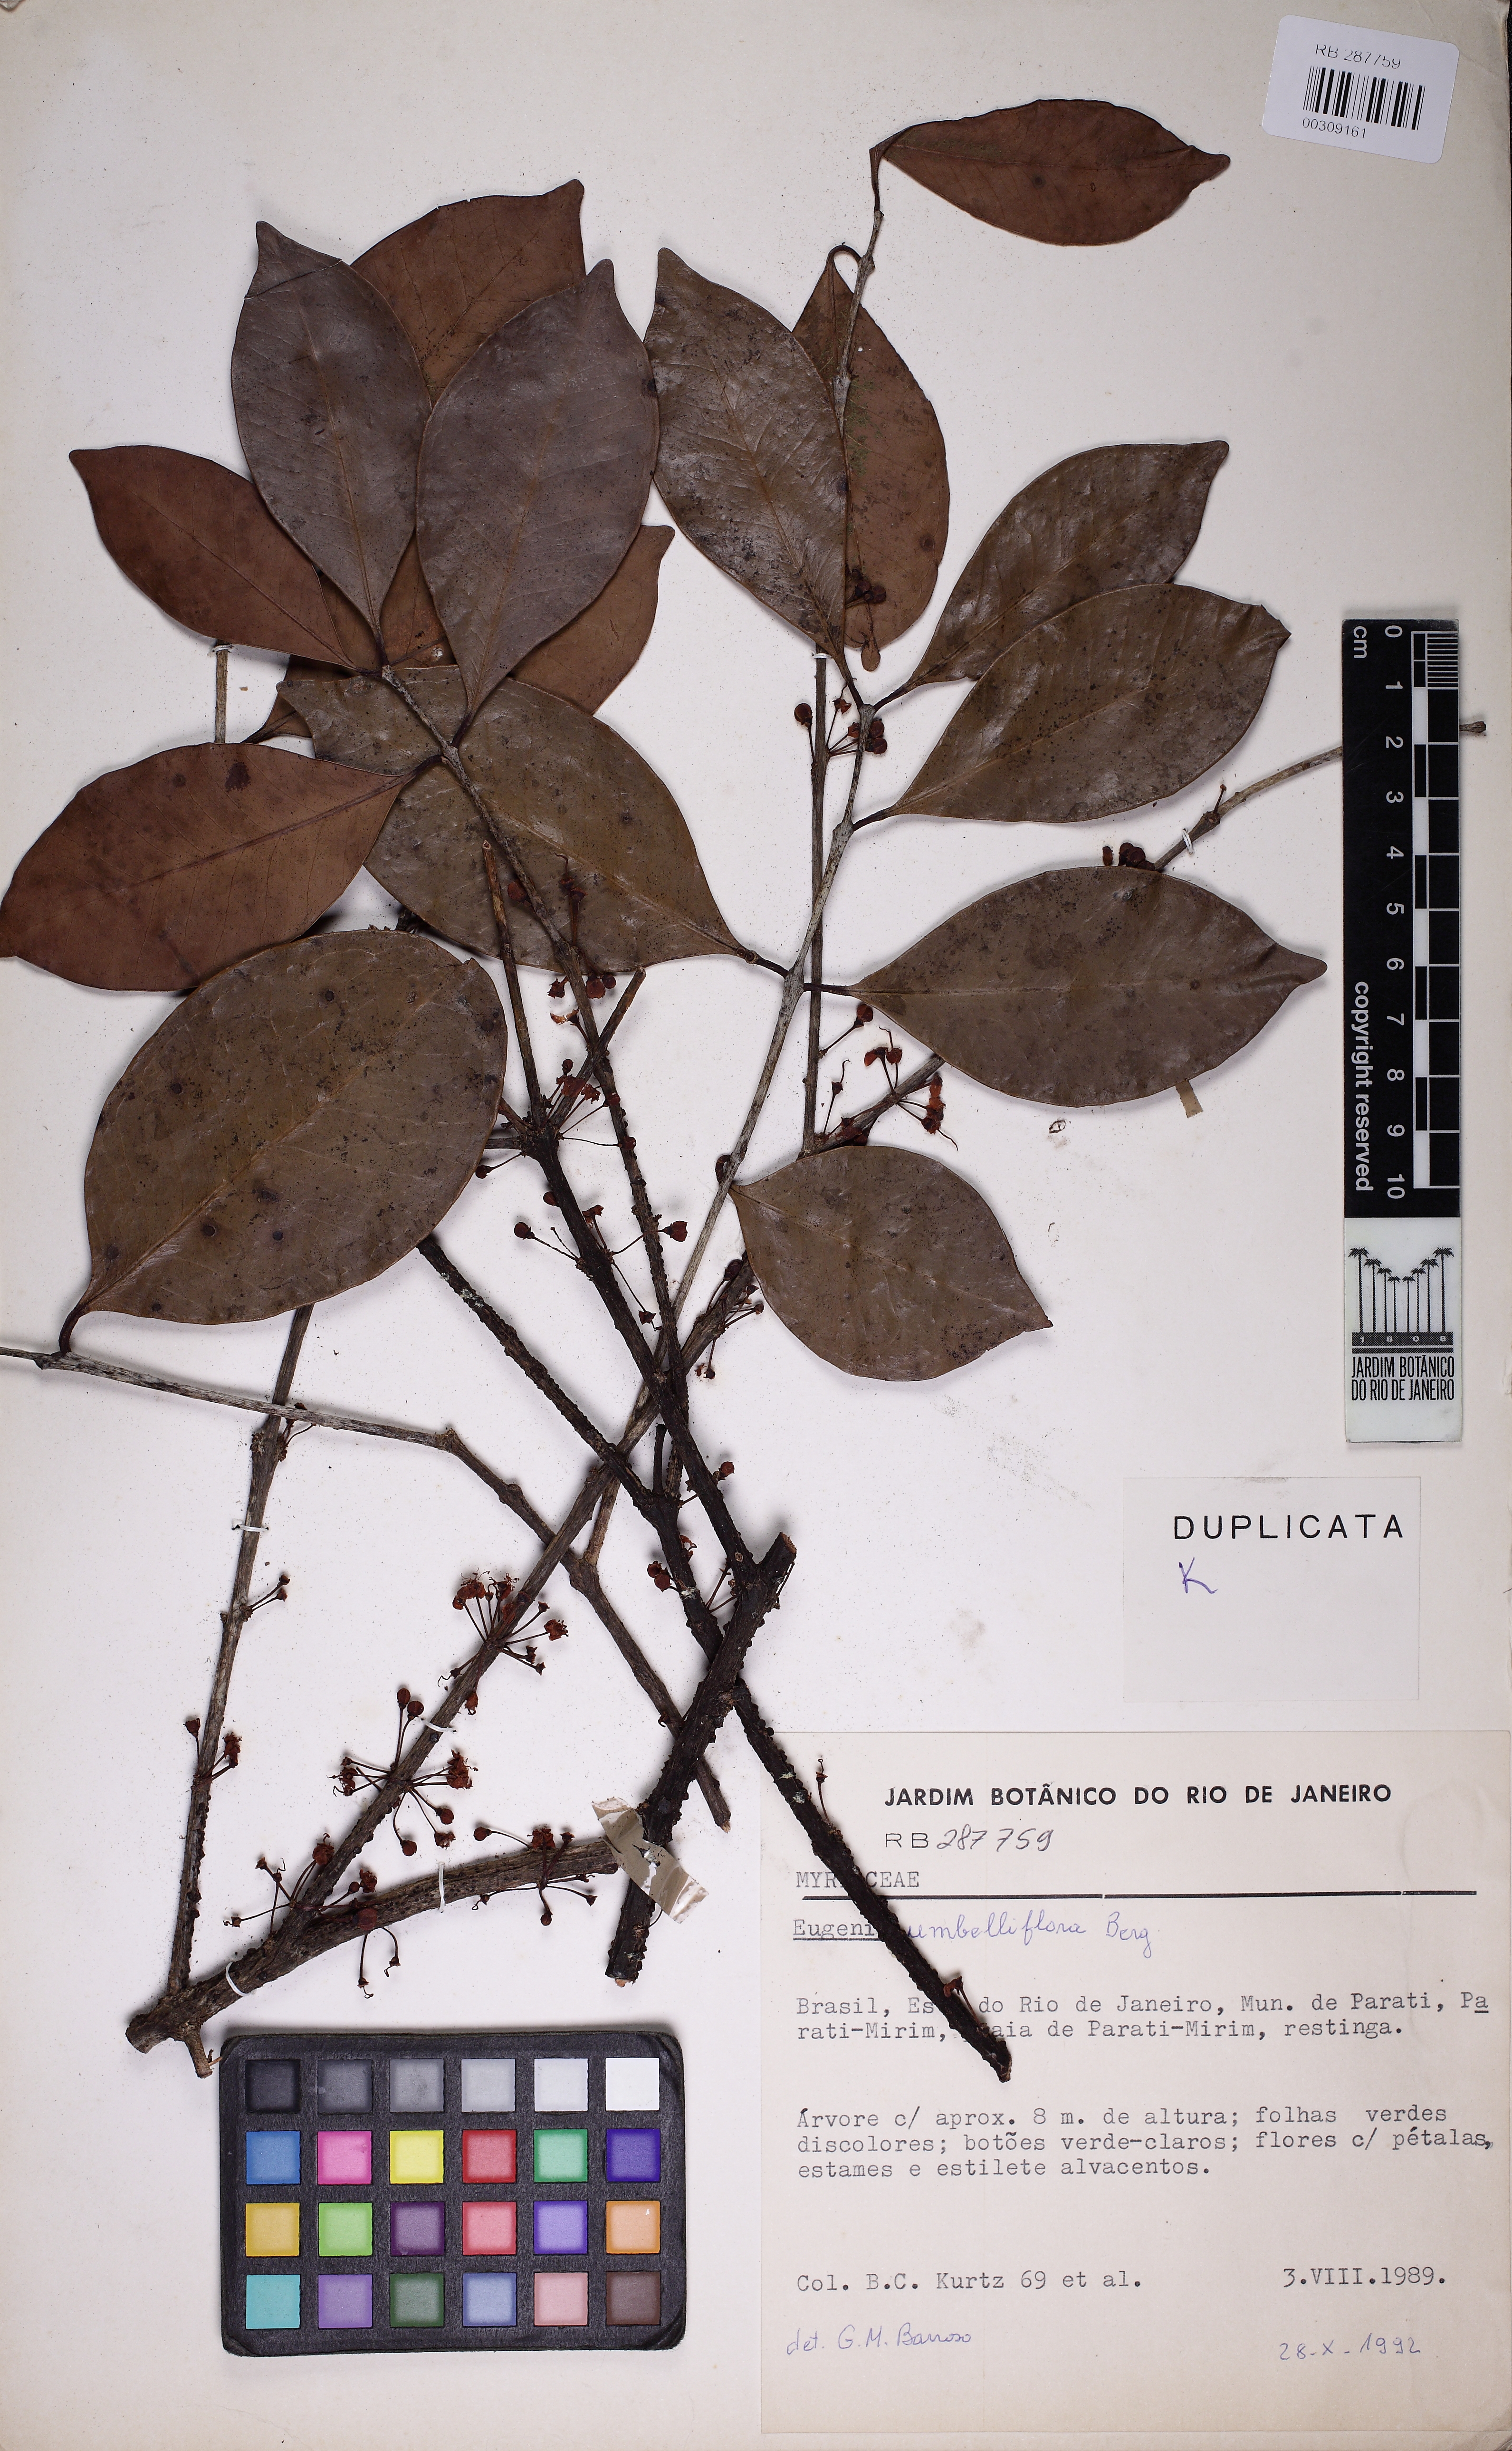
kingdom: Plantae
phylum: Tracheophyta
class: Magnoliopsida
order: Myrtales
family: Myrtaceae
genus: Eugenia
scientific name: Eugenia umbelliflora
